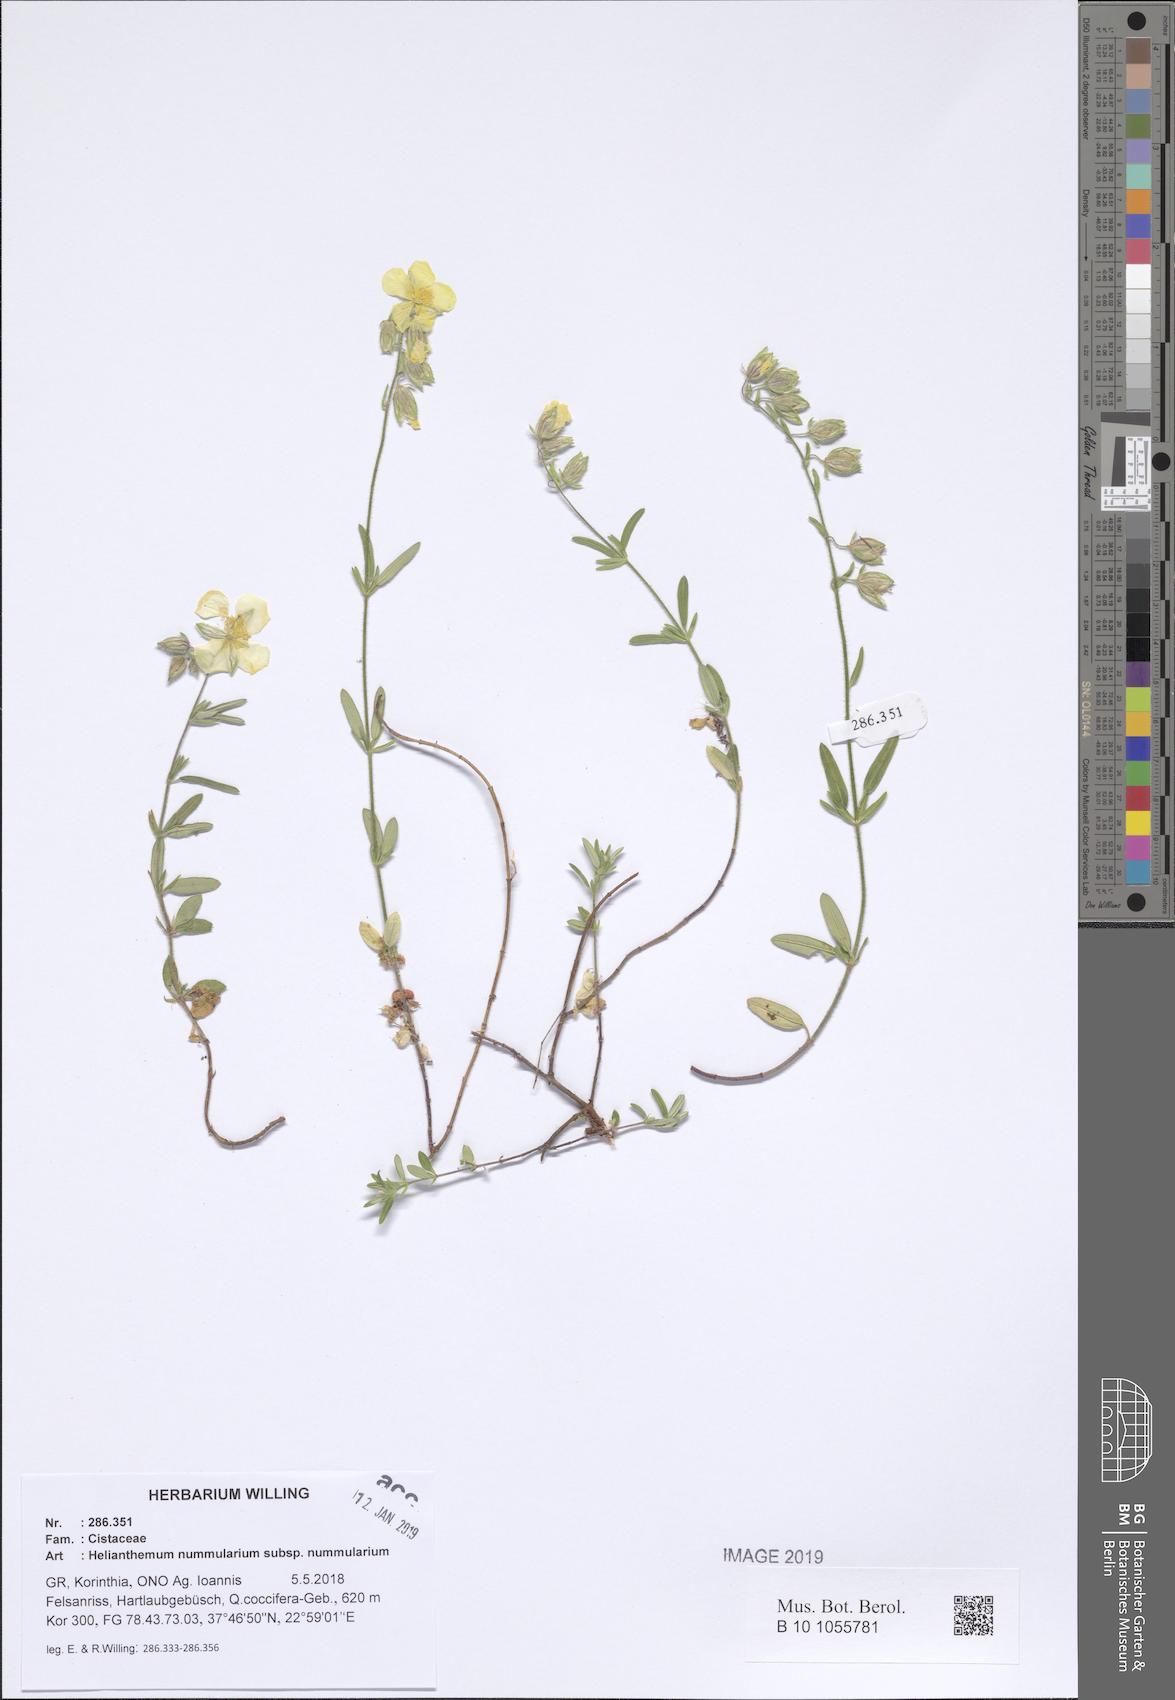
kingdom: Plantae
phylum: Tracheophyta
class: Magnoliopsida
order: Malvales
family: Cistaceae
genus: Helianthemum
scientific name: Helianthemum nummularium
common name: Common rock-rose
